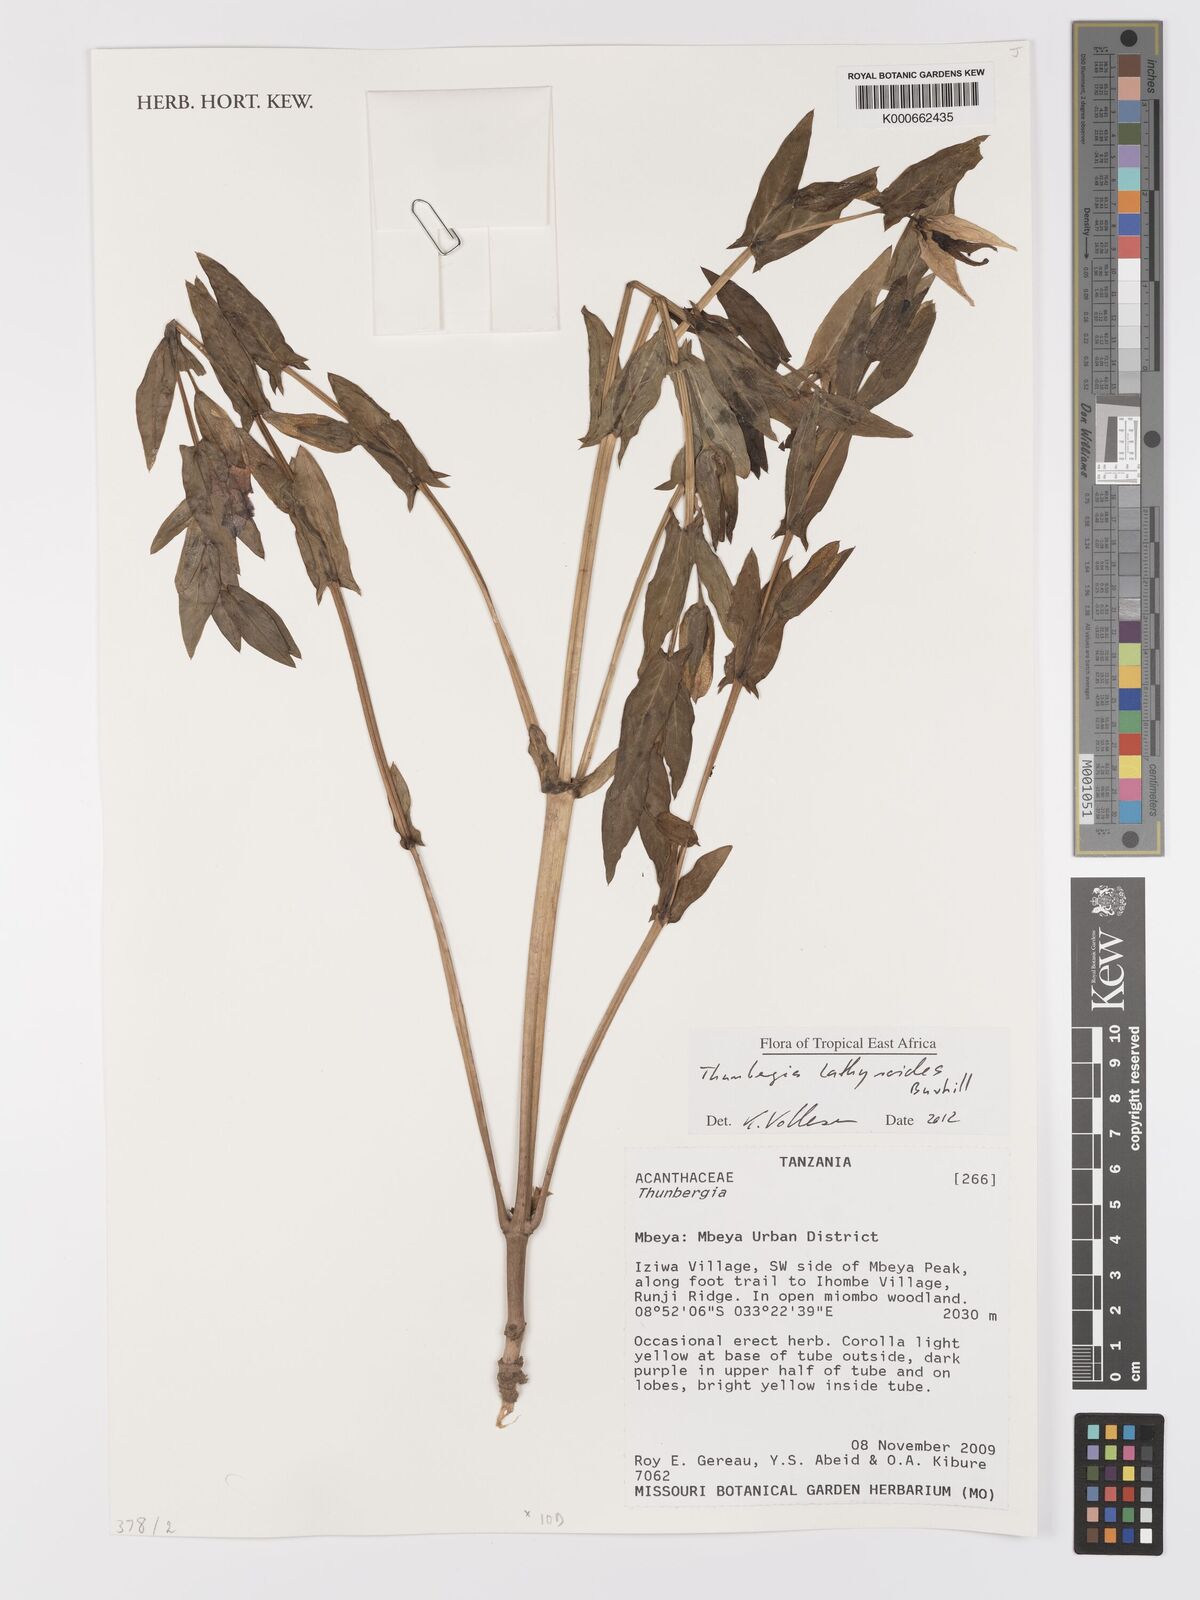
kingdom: Plantae
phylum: Tracheophyta
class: Magnoliopsida
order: Lamiales
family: Acanthaceae
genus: Thunbergia
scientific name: Thunbergia lathyroides
